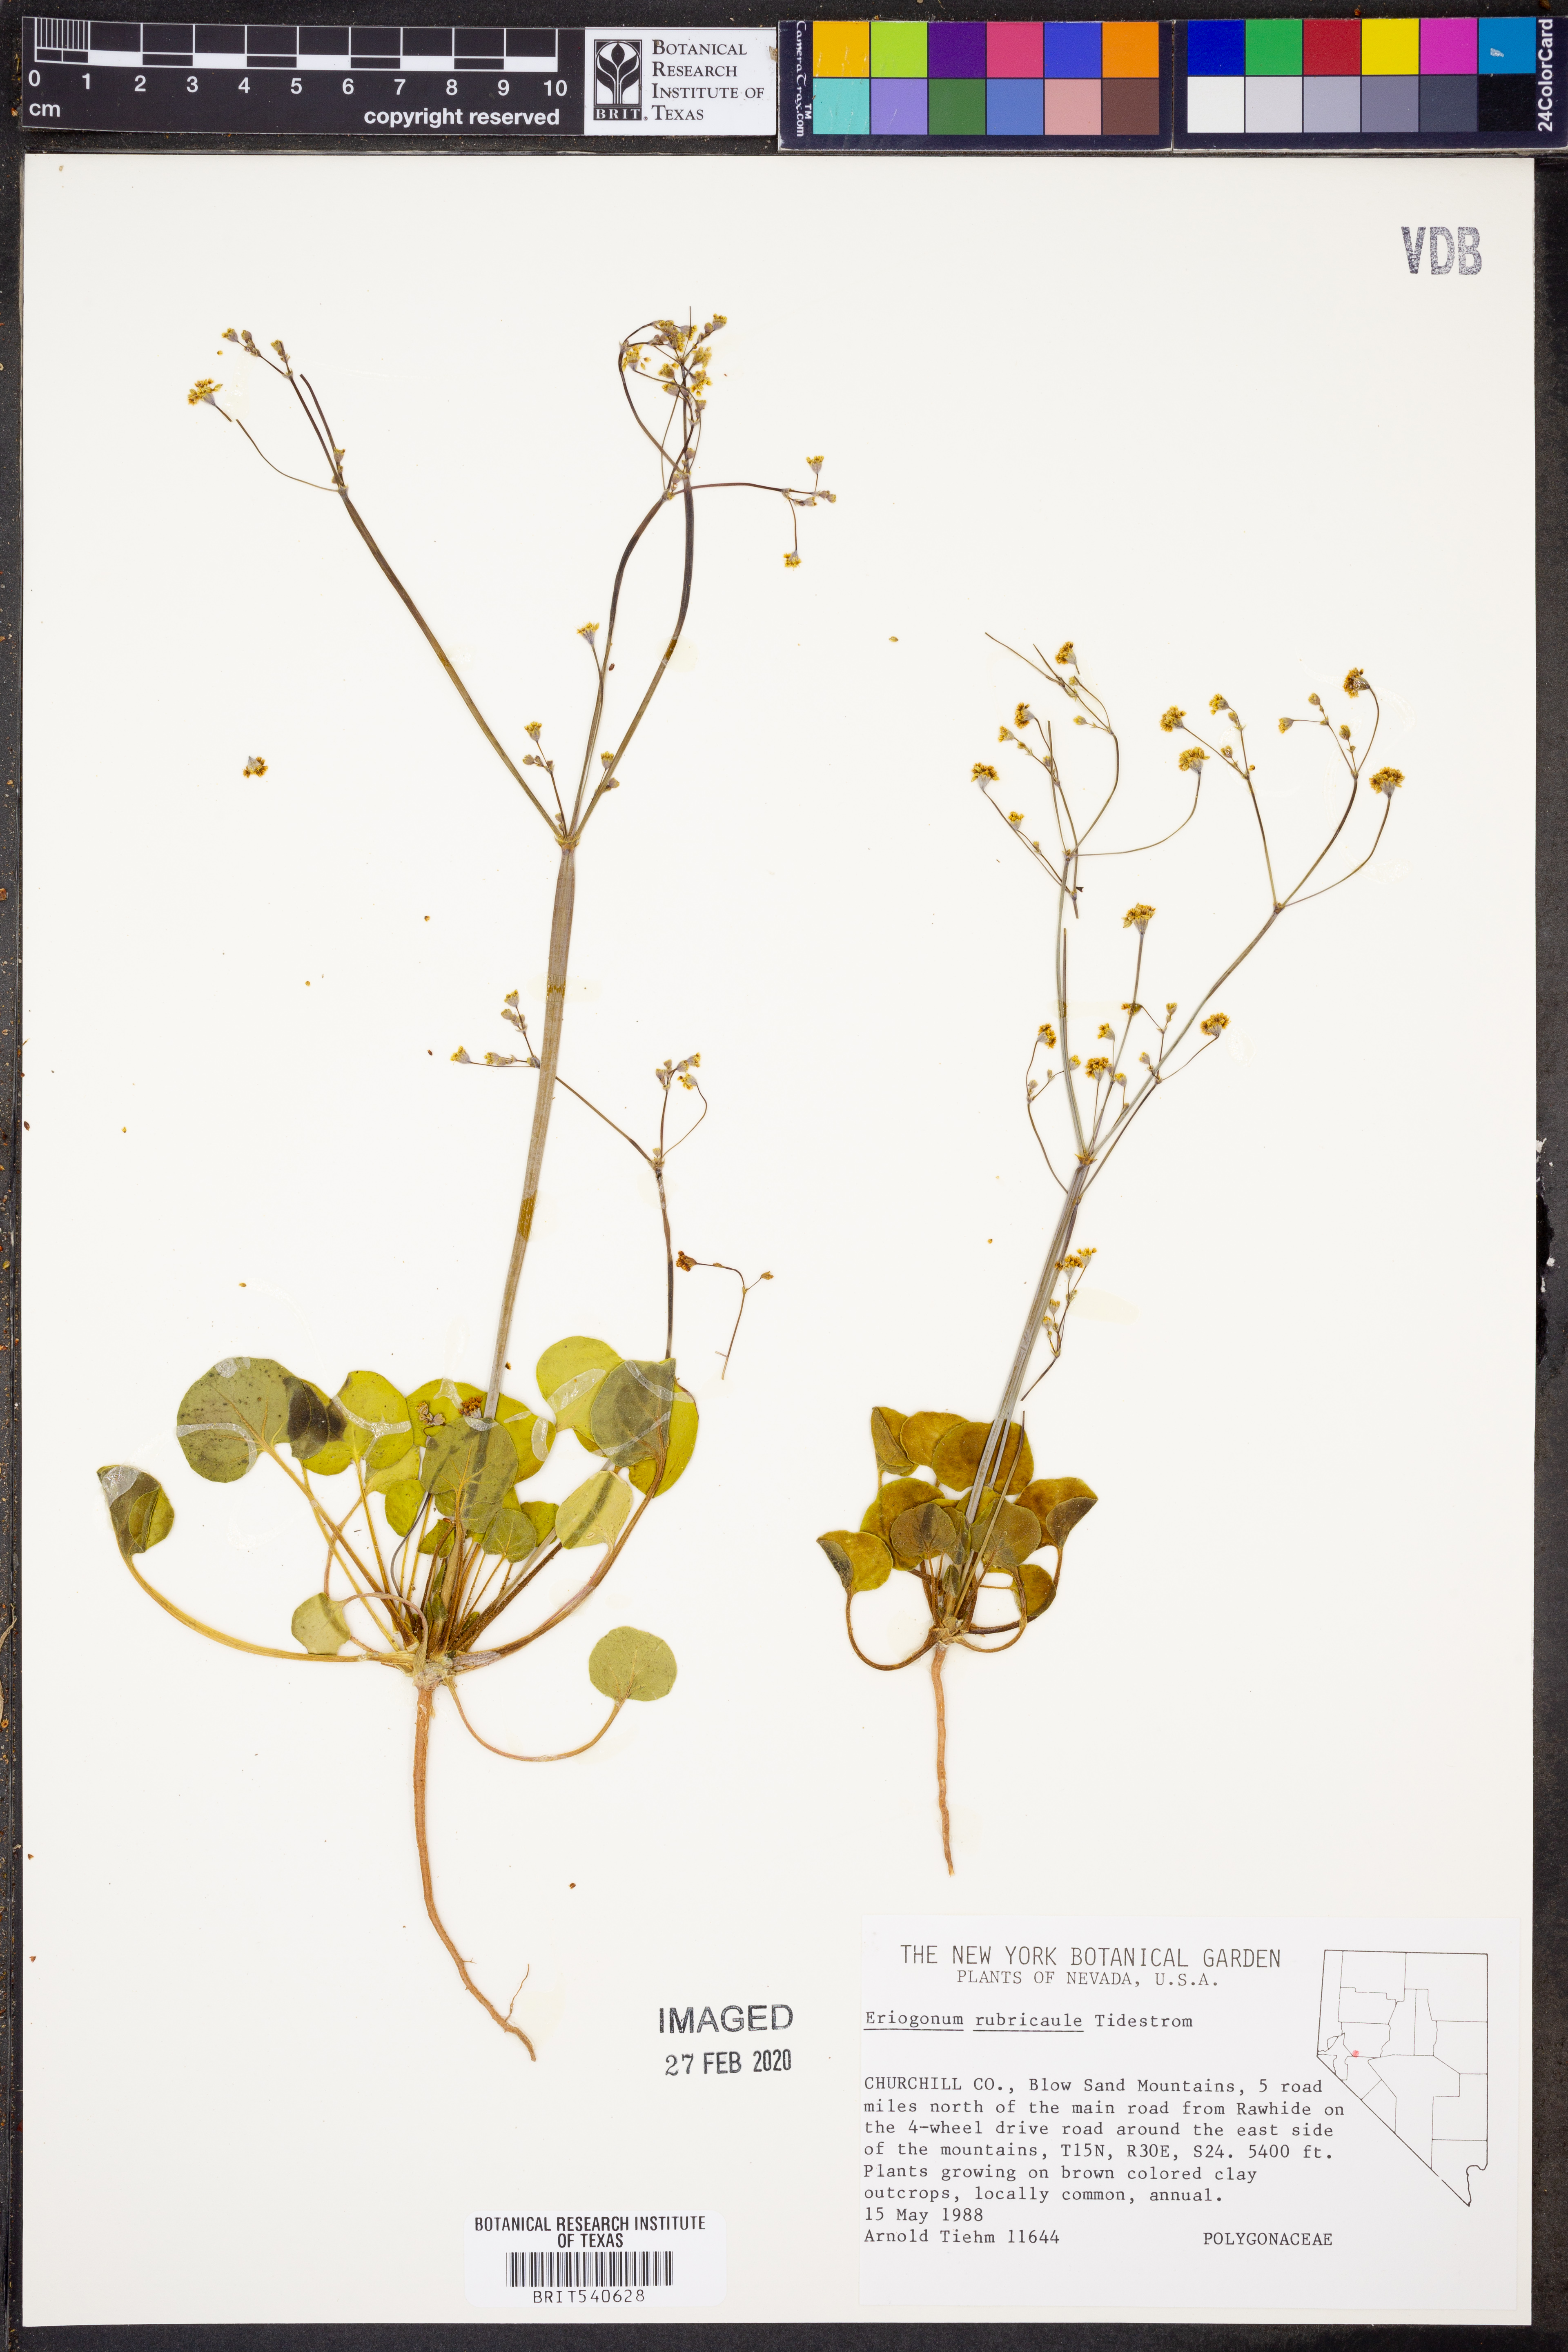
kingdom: Plantae
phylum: Tracheophyta
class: Magnoliopsida
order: Caryophyllales
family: Polygonaceae
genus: Eriogonum
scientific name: Eriogonum rubricaule
